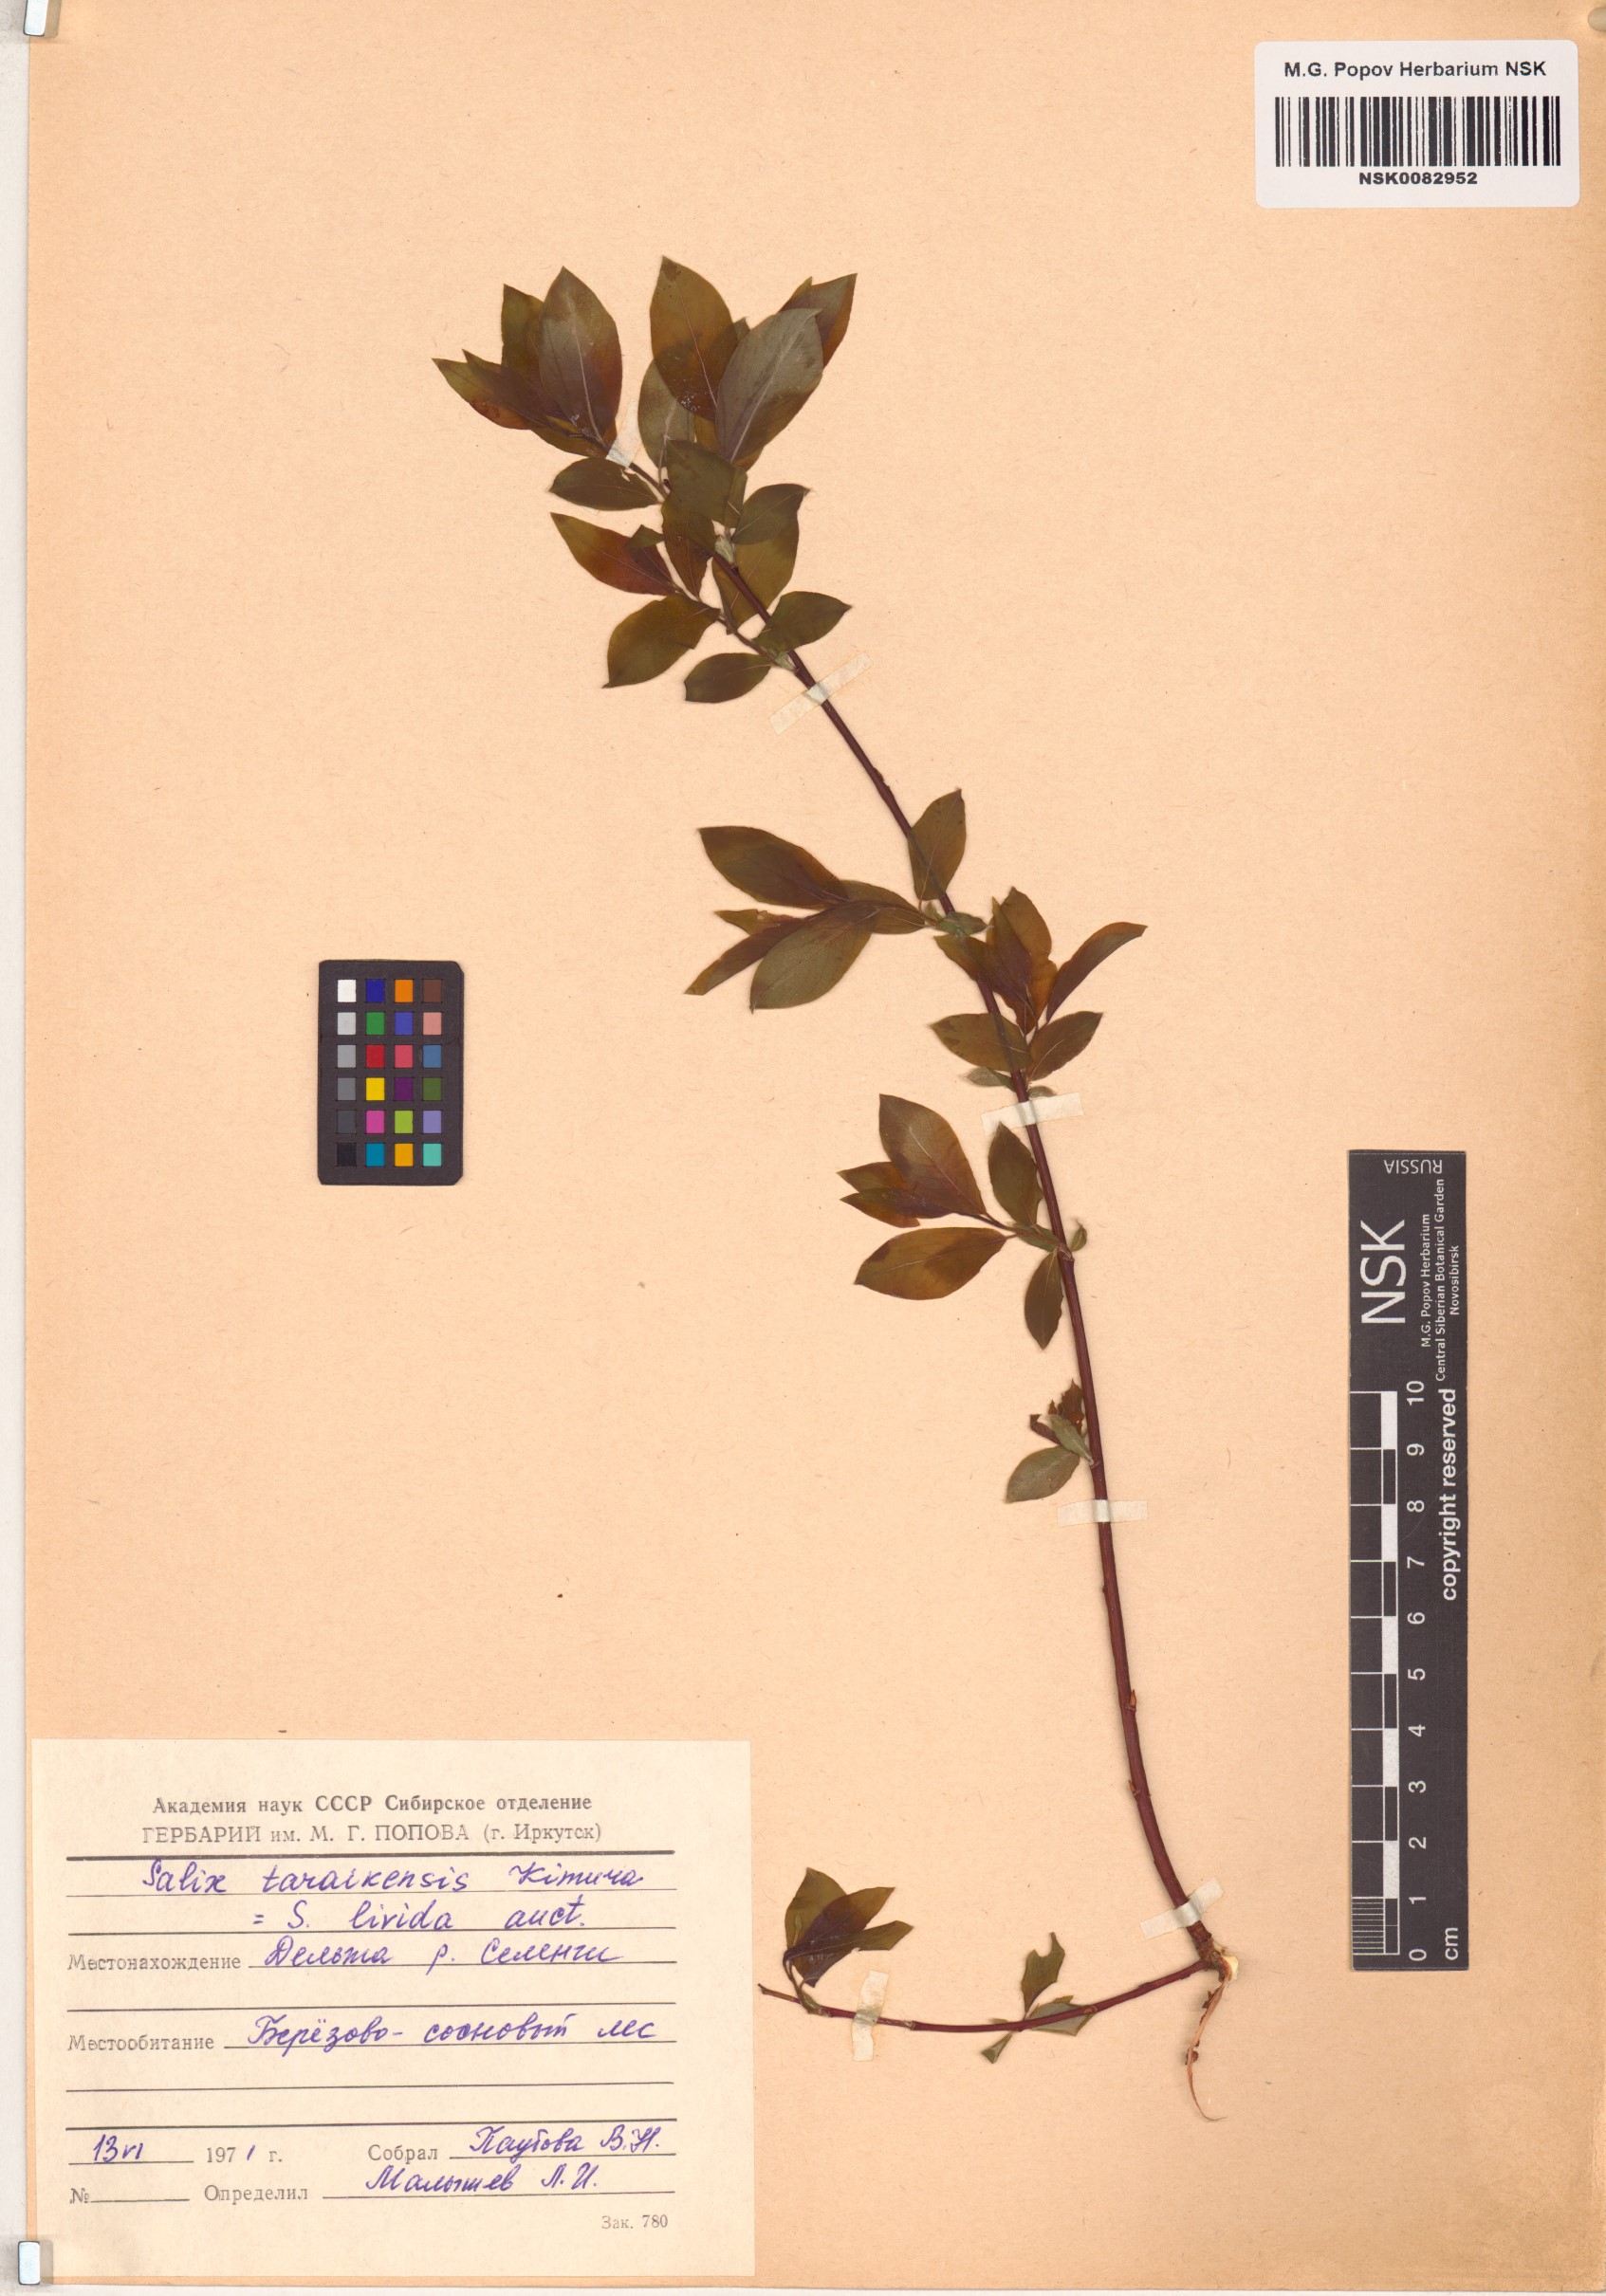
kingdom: Plantae
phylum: Tracheophyta
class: Magnoliopsida
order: Malpighiales
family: Salicaceae
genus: Salix
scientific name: Salix taraikensis
